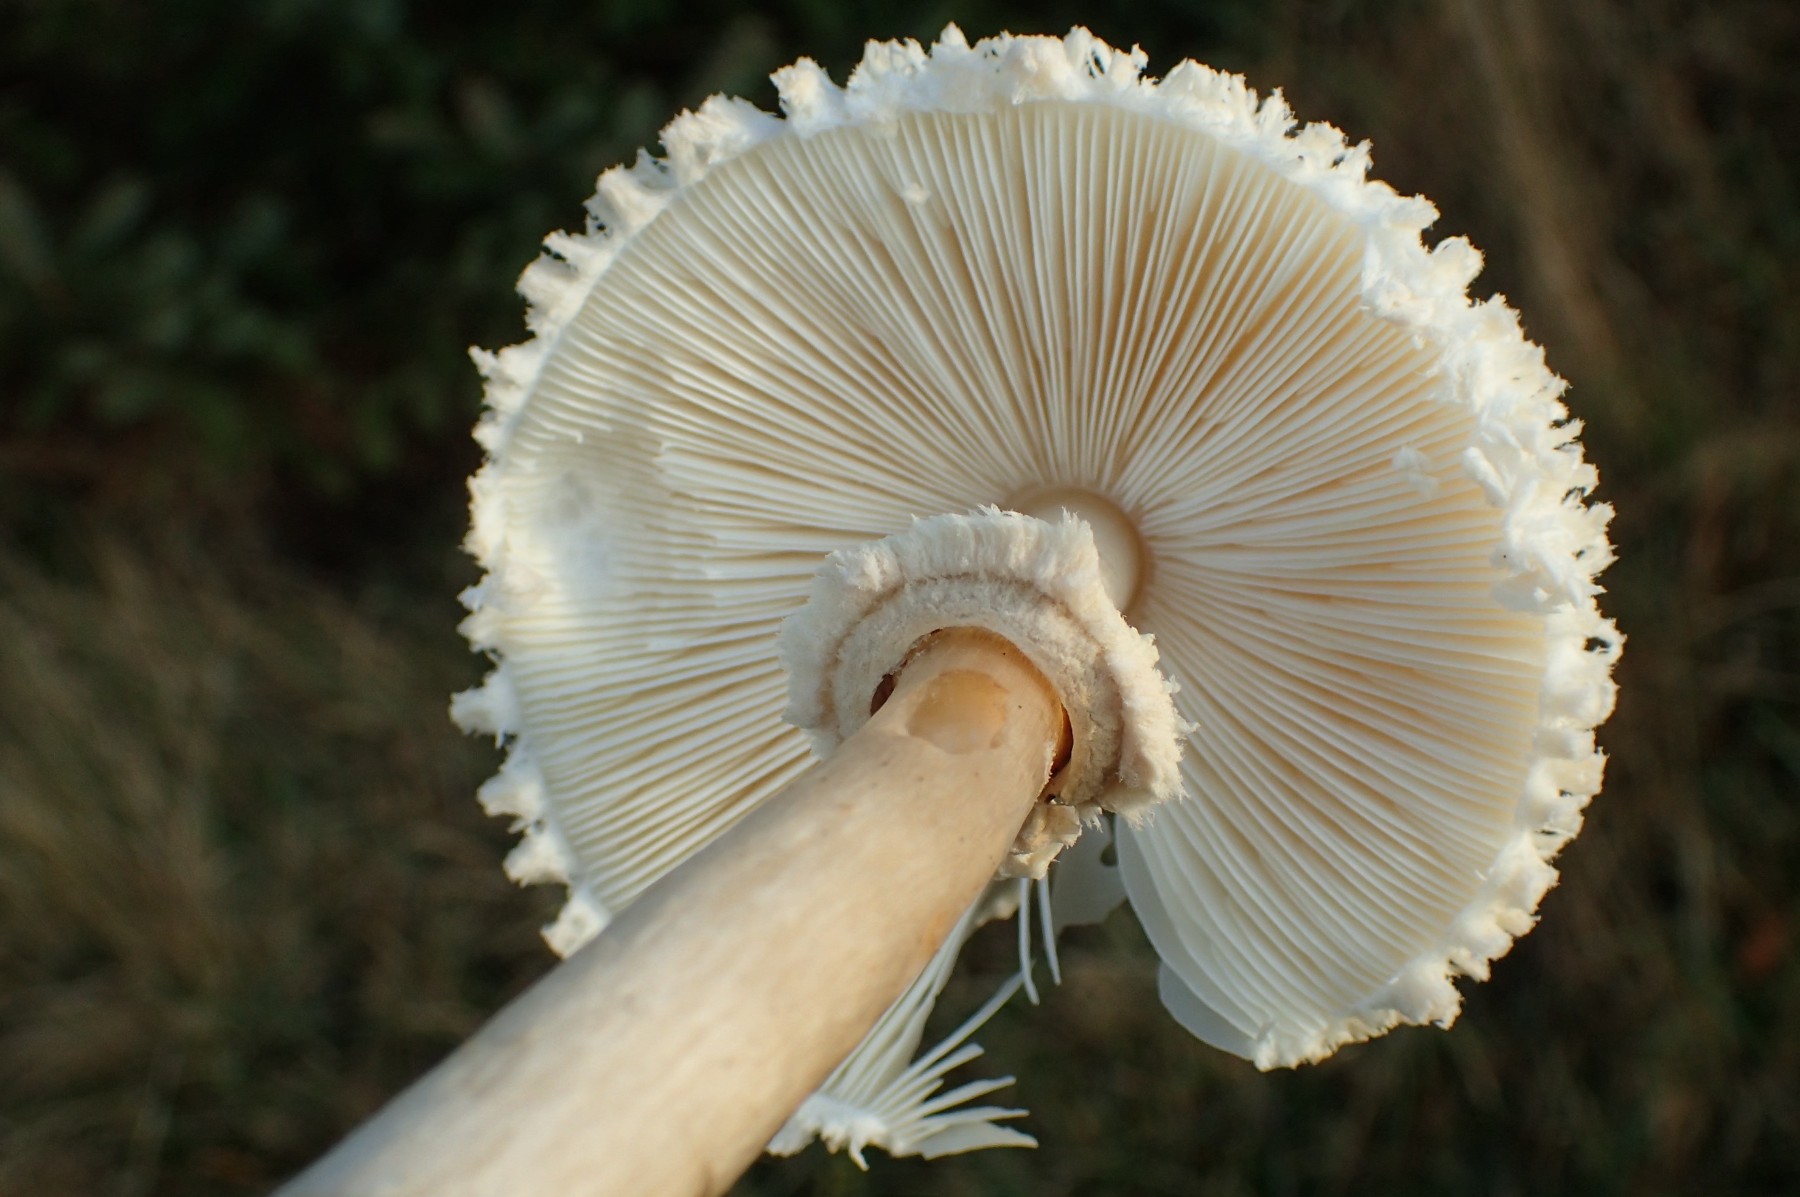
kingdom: Fungi
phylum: Basidiomycota
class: Agaricomycetes
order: Agaricales
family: Agaricaceae
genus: Leucoagaricus
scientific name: Leucoagaricus nympharum
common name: gran-silkehat
